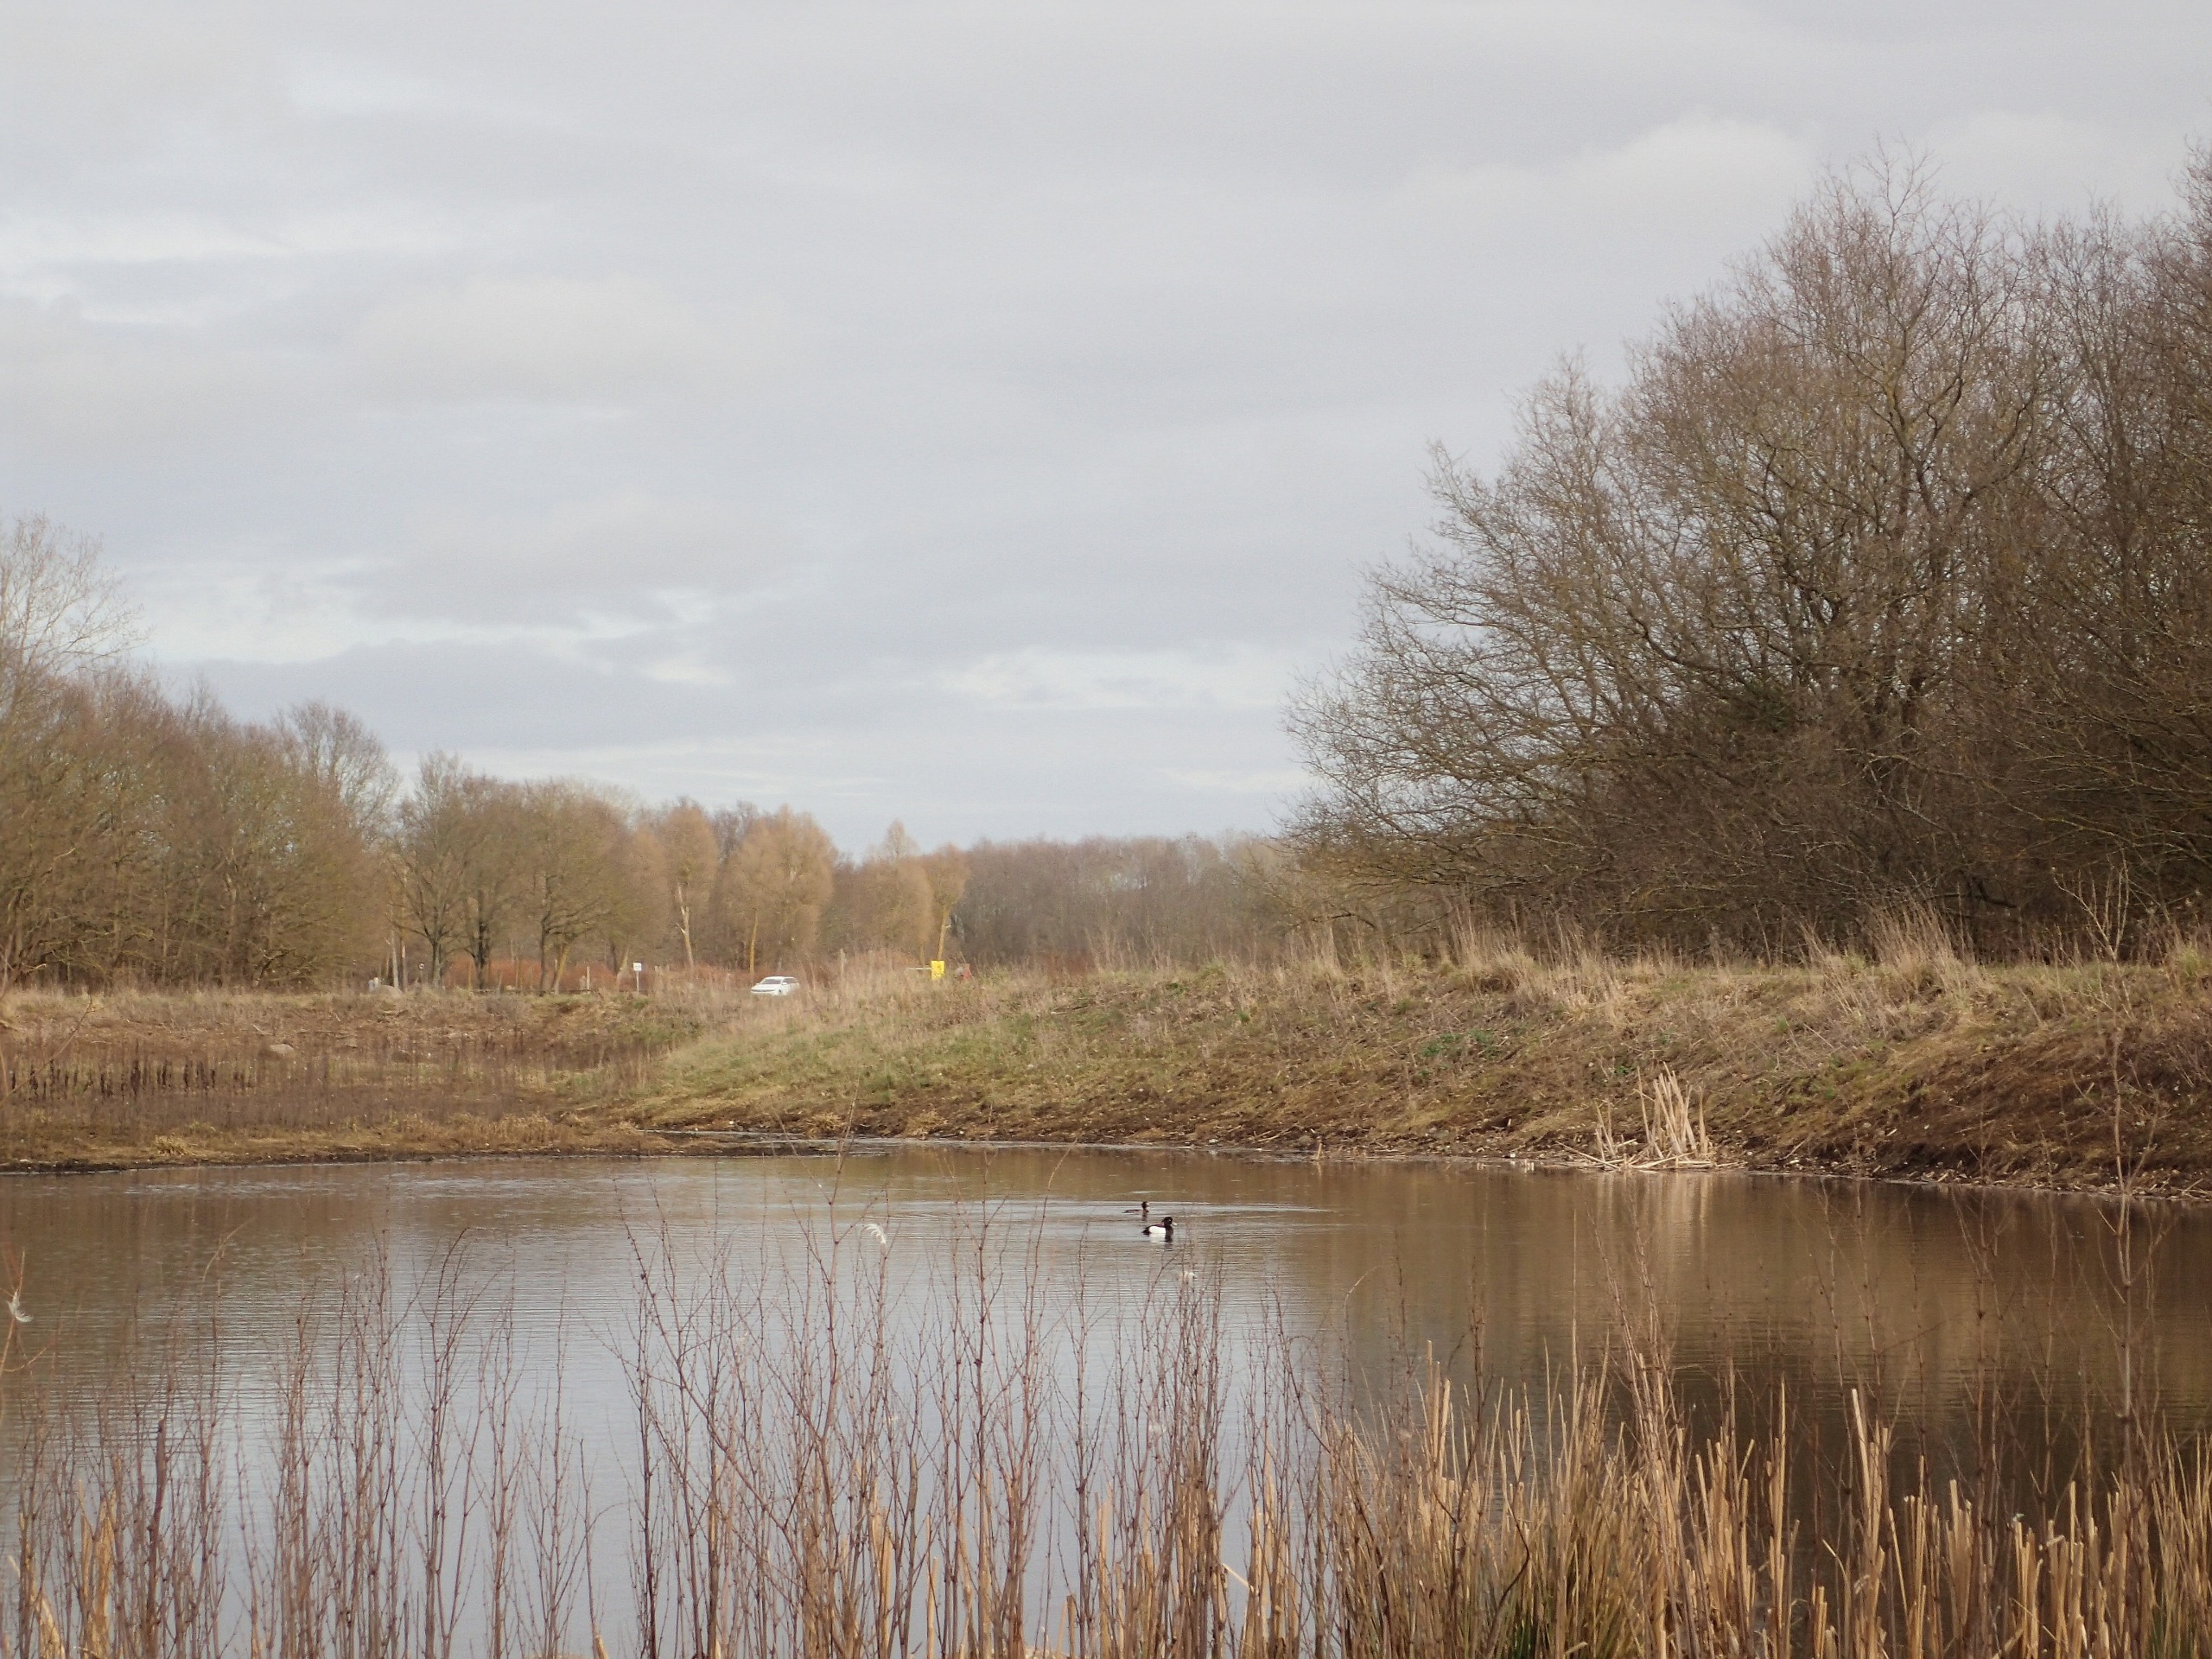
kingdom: Animalia
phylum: Chordata
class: Aves
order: Anseriformes
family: Anatidae
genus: Aythya
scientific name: Aythya fuligula
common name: Troldand
